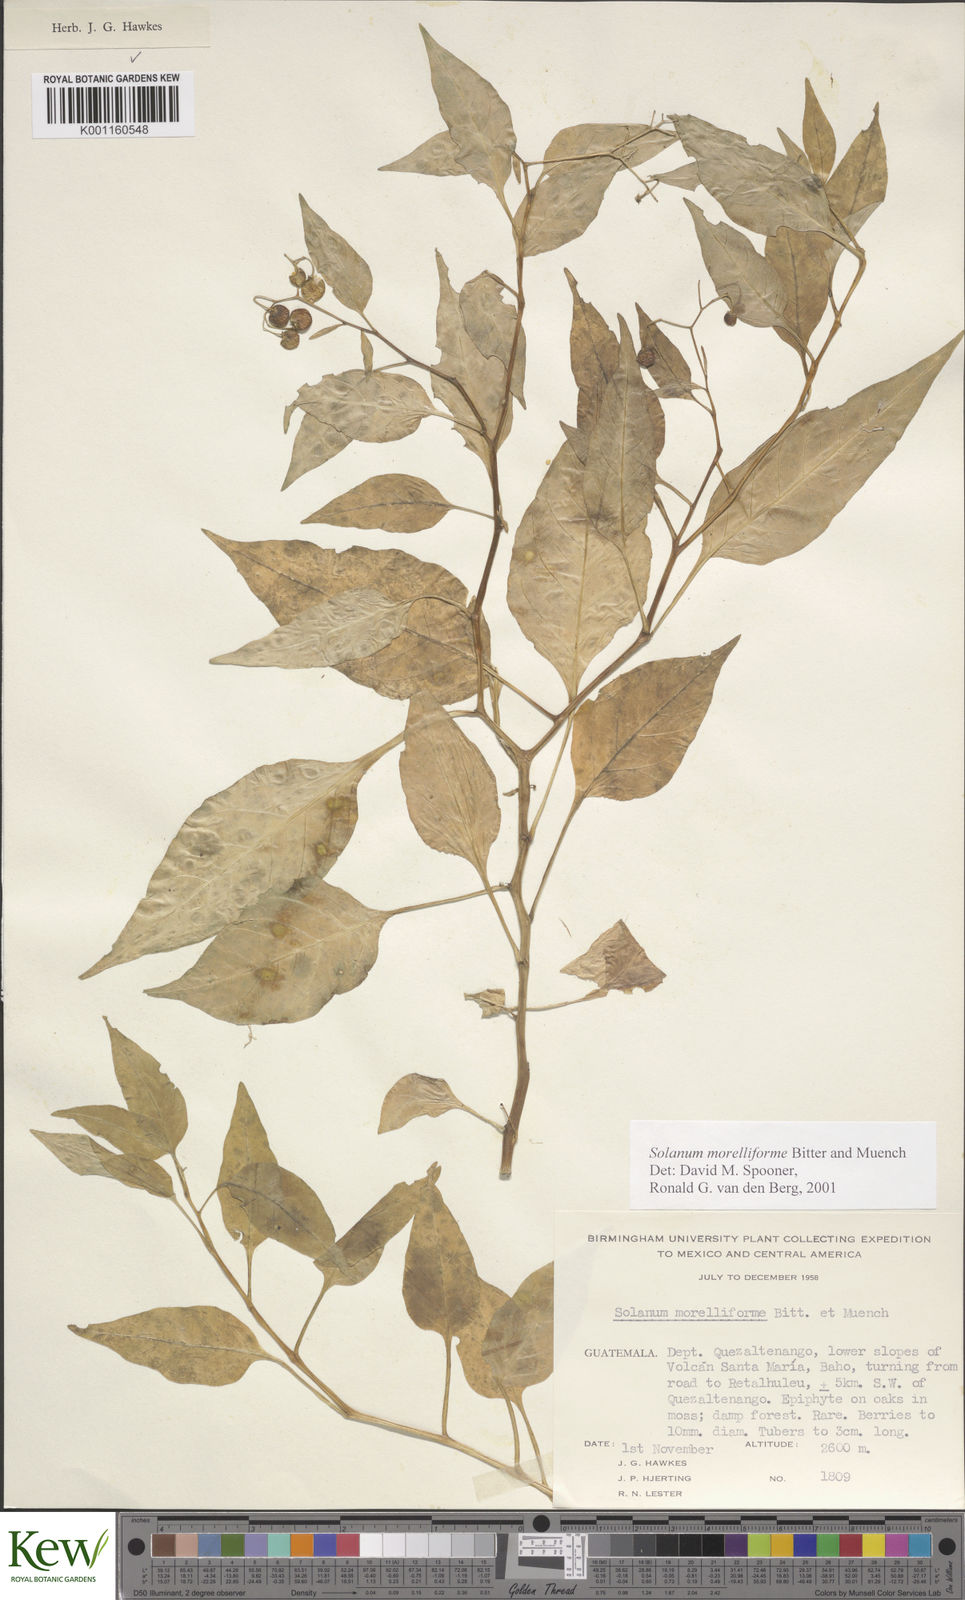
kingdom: Plantae
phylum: Tracheophyta
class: Magnoliopsida
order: Solanales
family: Solanaceae
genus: Solanum
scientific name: Solanum
